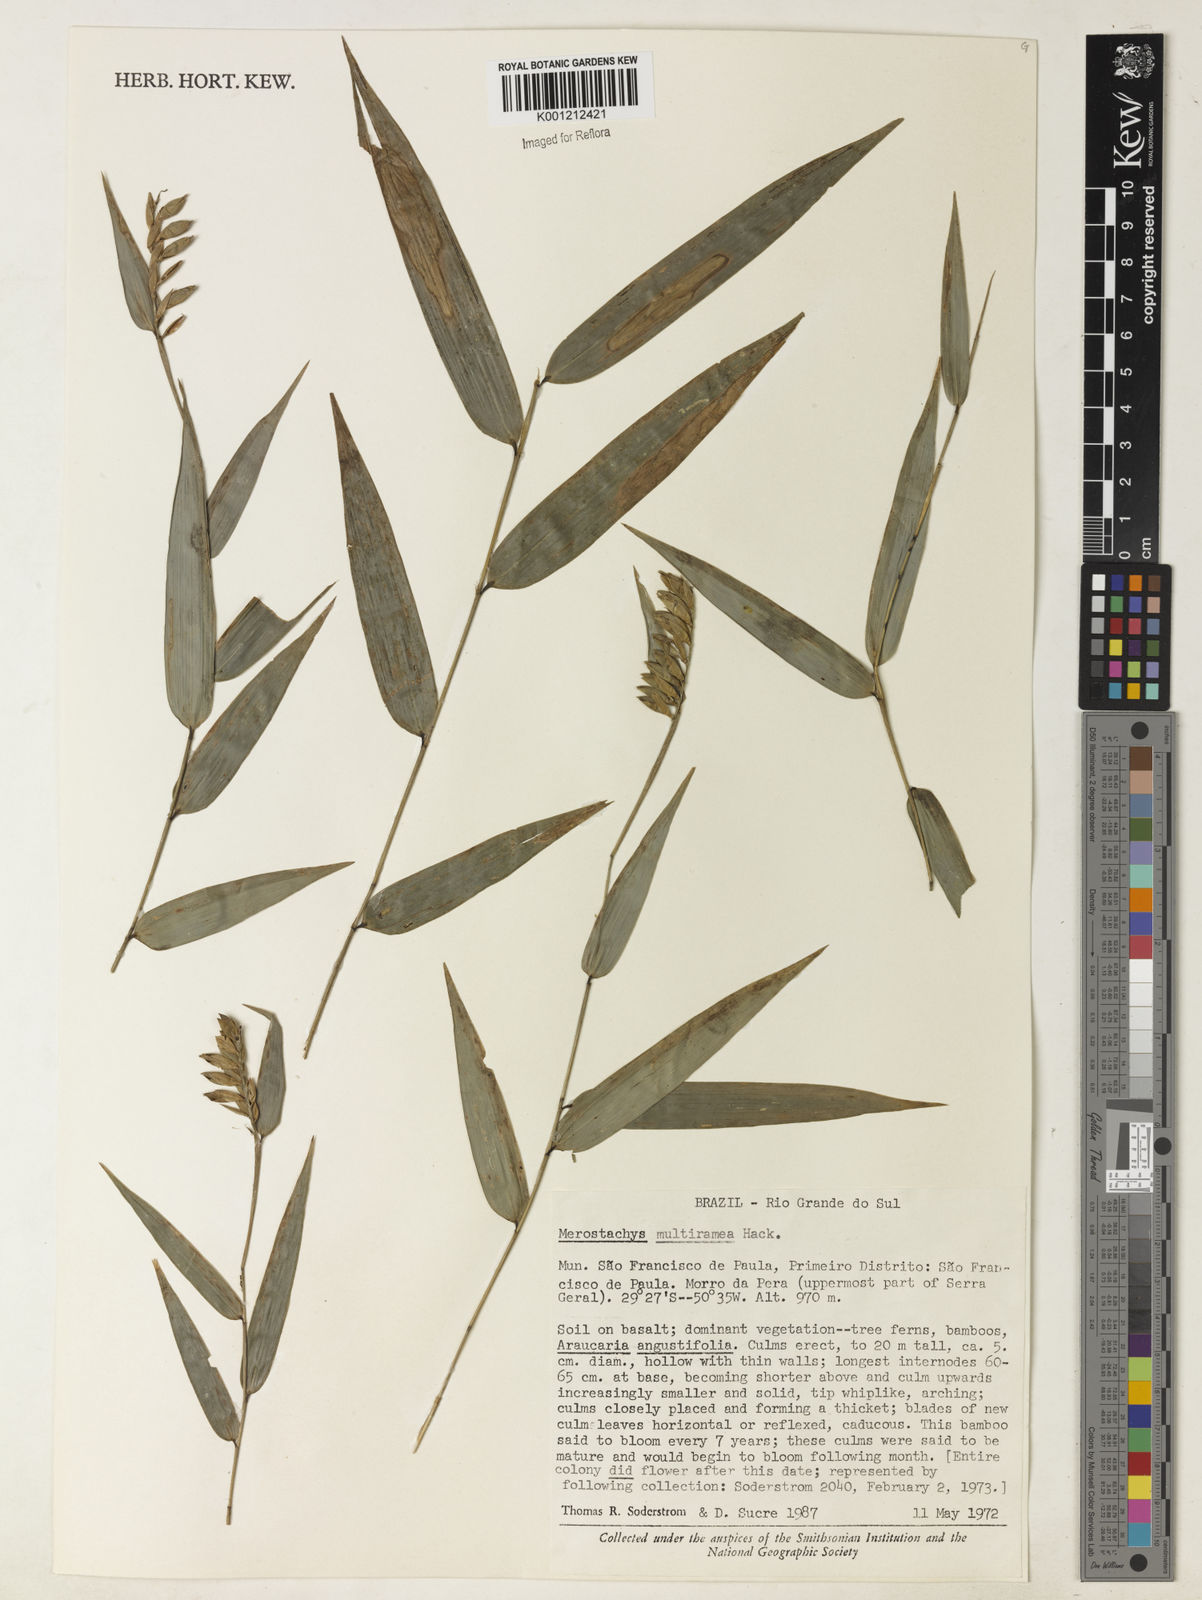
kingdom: Plantae
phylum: Tracheophyta
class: Liliopsida
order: Poales
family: Poaceae
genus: Merostachys
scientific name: Merostachys multiramea
